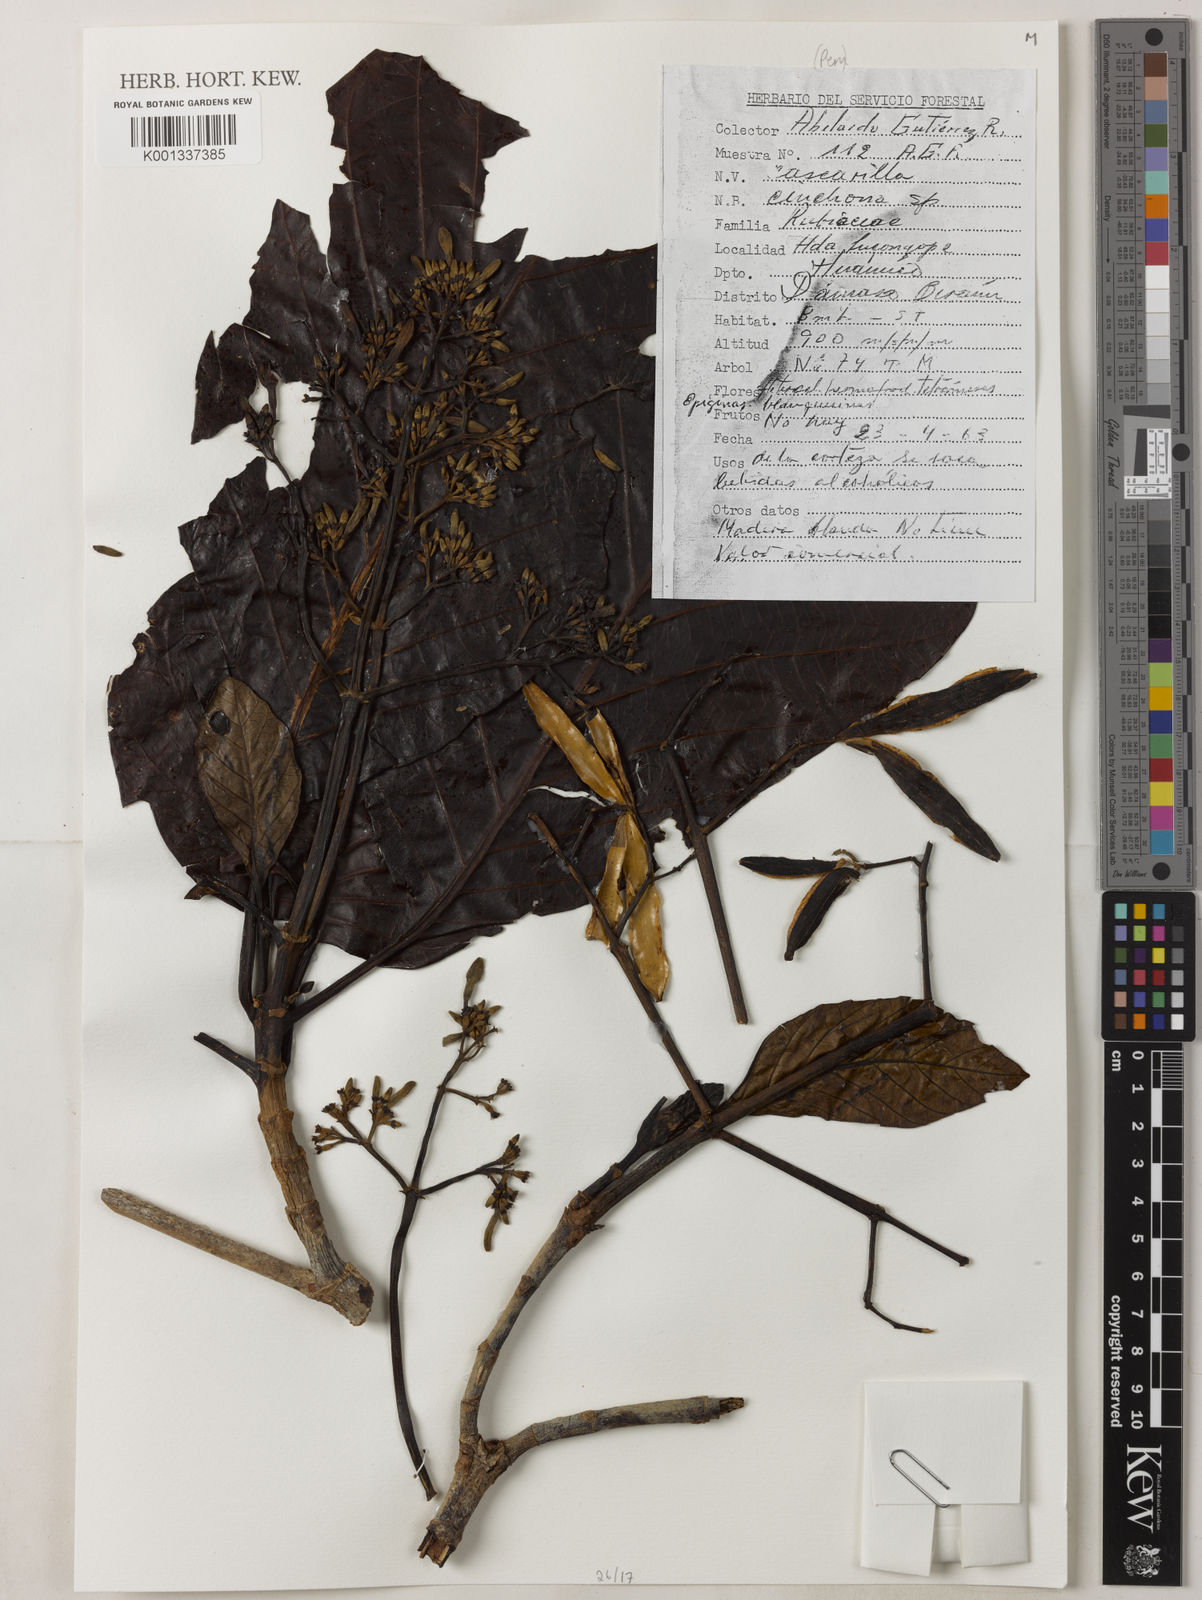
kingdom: Plantae
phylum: Tracheophyta
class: Magnoliopsida
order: Gentianales
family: Rubiaceae
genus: Cinchona
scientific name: Cinchona
